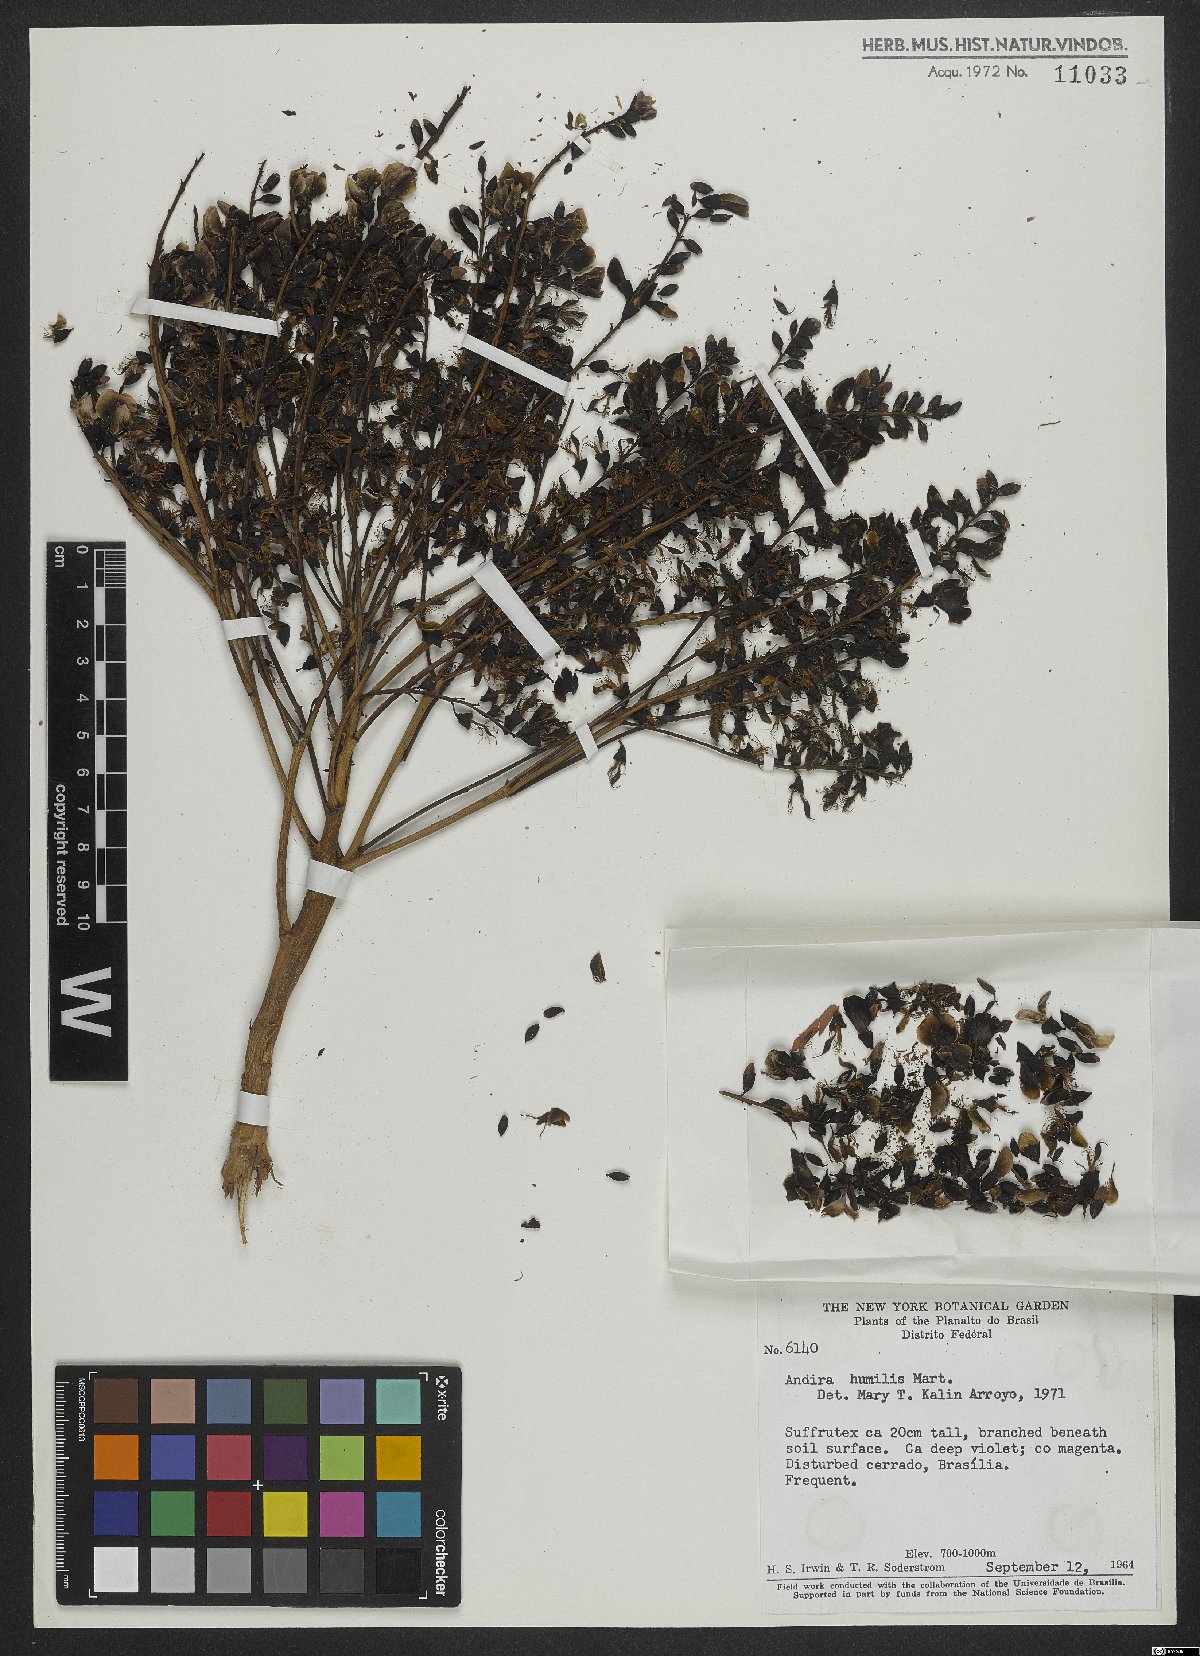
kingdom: Plantae
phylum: Tracheophyta
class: Magnoliopsida
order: Fabales
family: Fabaceae
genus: Andira
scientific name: Andira humilis
